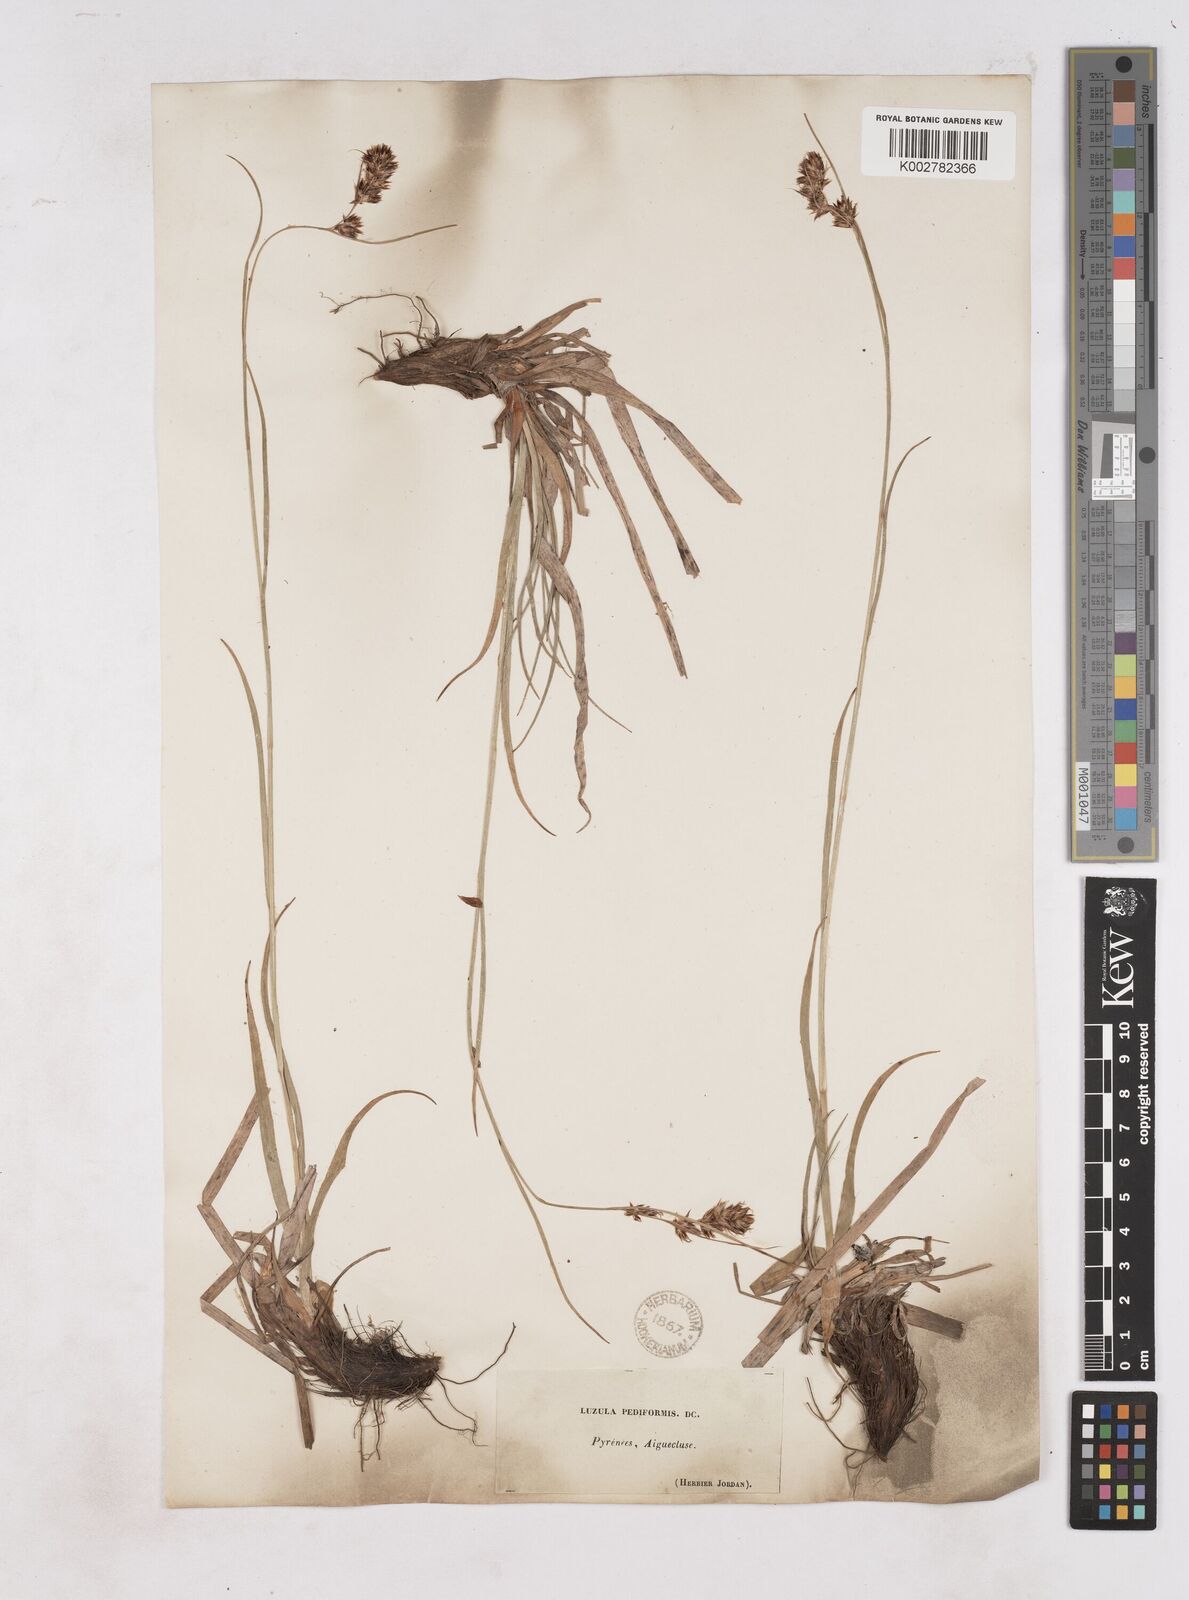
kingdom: Plantae
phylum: Tracheophyta
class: Liliopsida
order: Poales
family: Juncaceae
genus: Luzula
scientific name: Luzula pediformis
